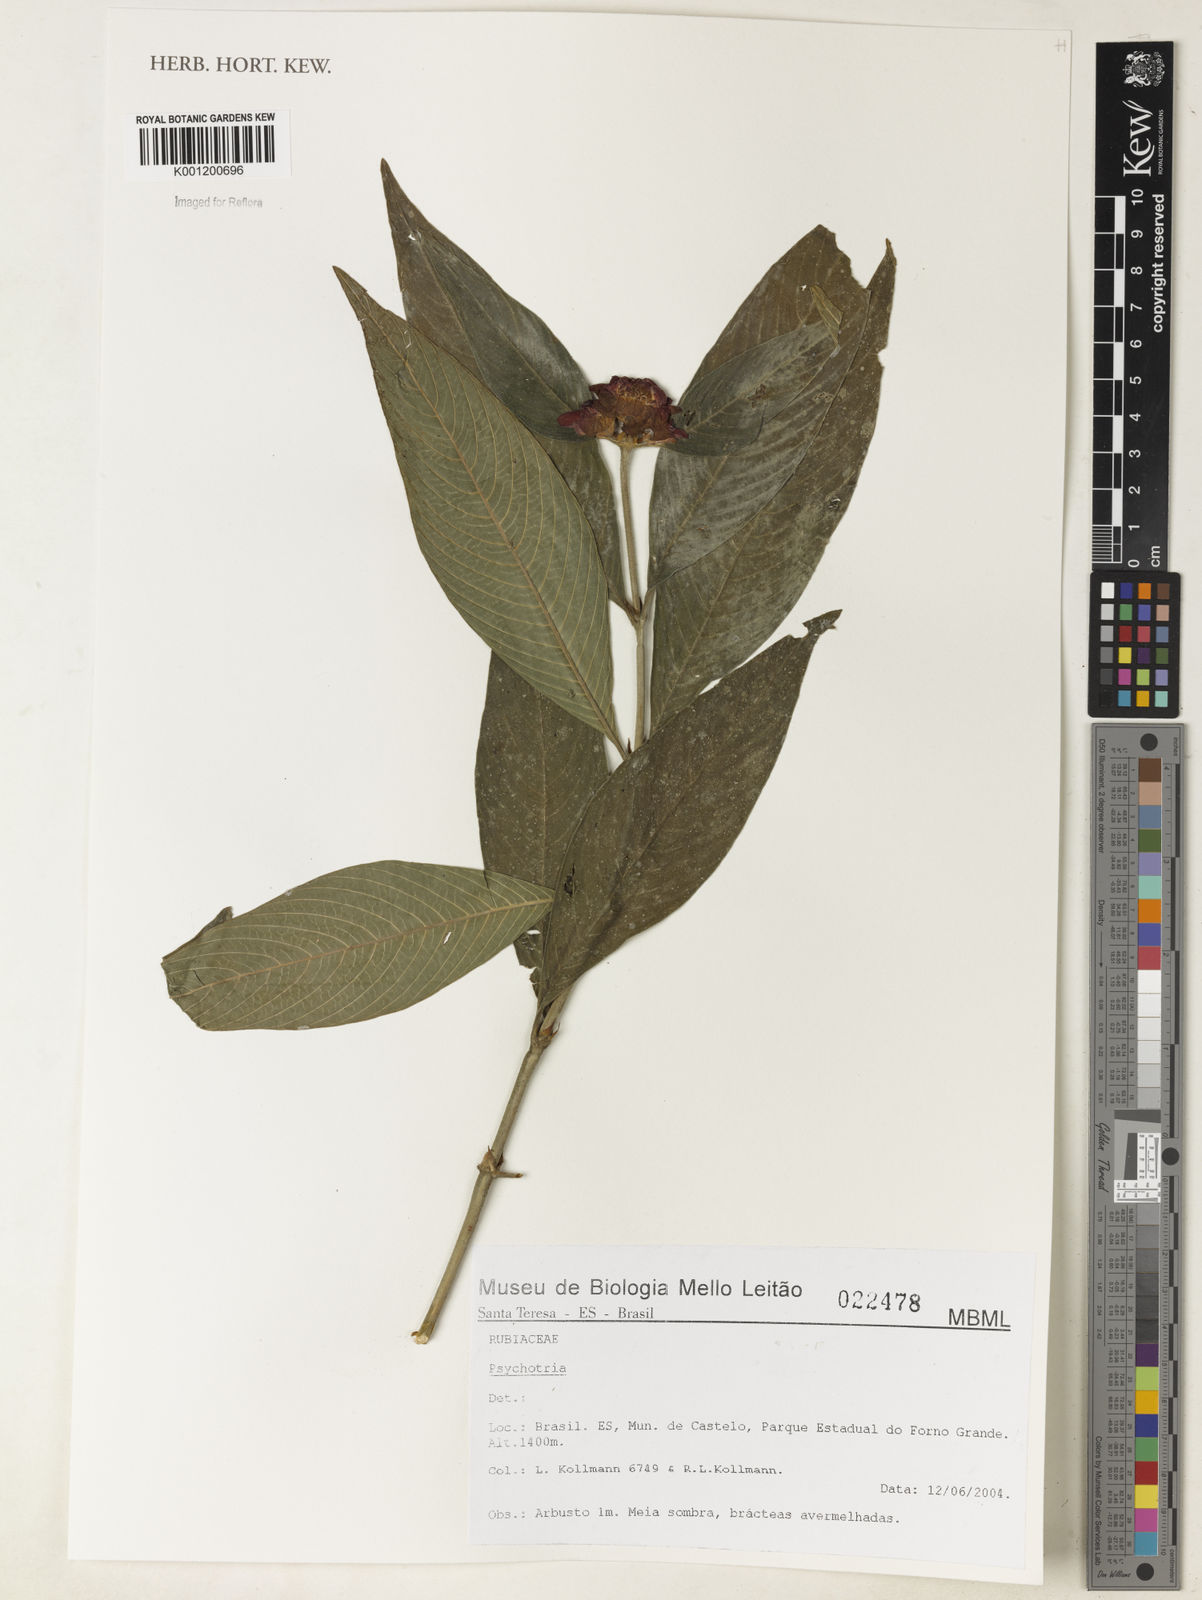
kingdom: Plantae
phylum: Tracheophyta
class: Magnoliopsida
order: Gentianales
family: Rubiaceae
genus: Psychotria
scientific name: Psychotria
